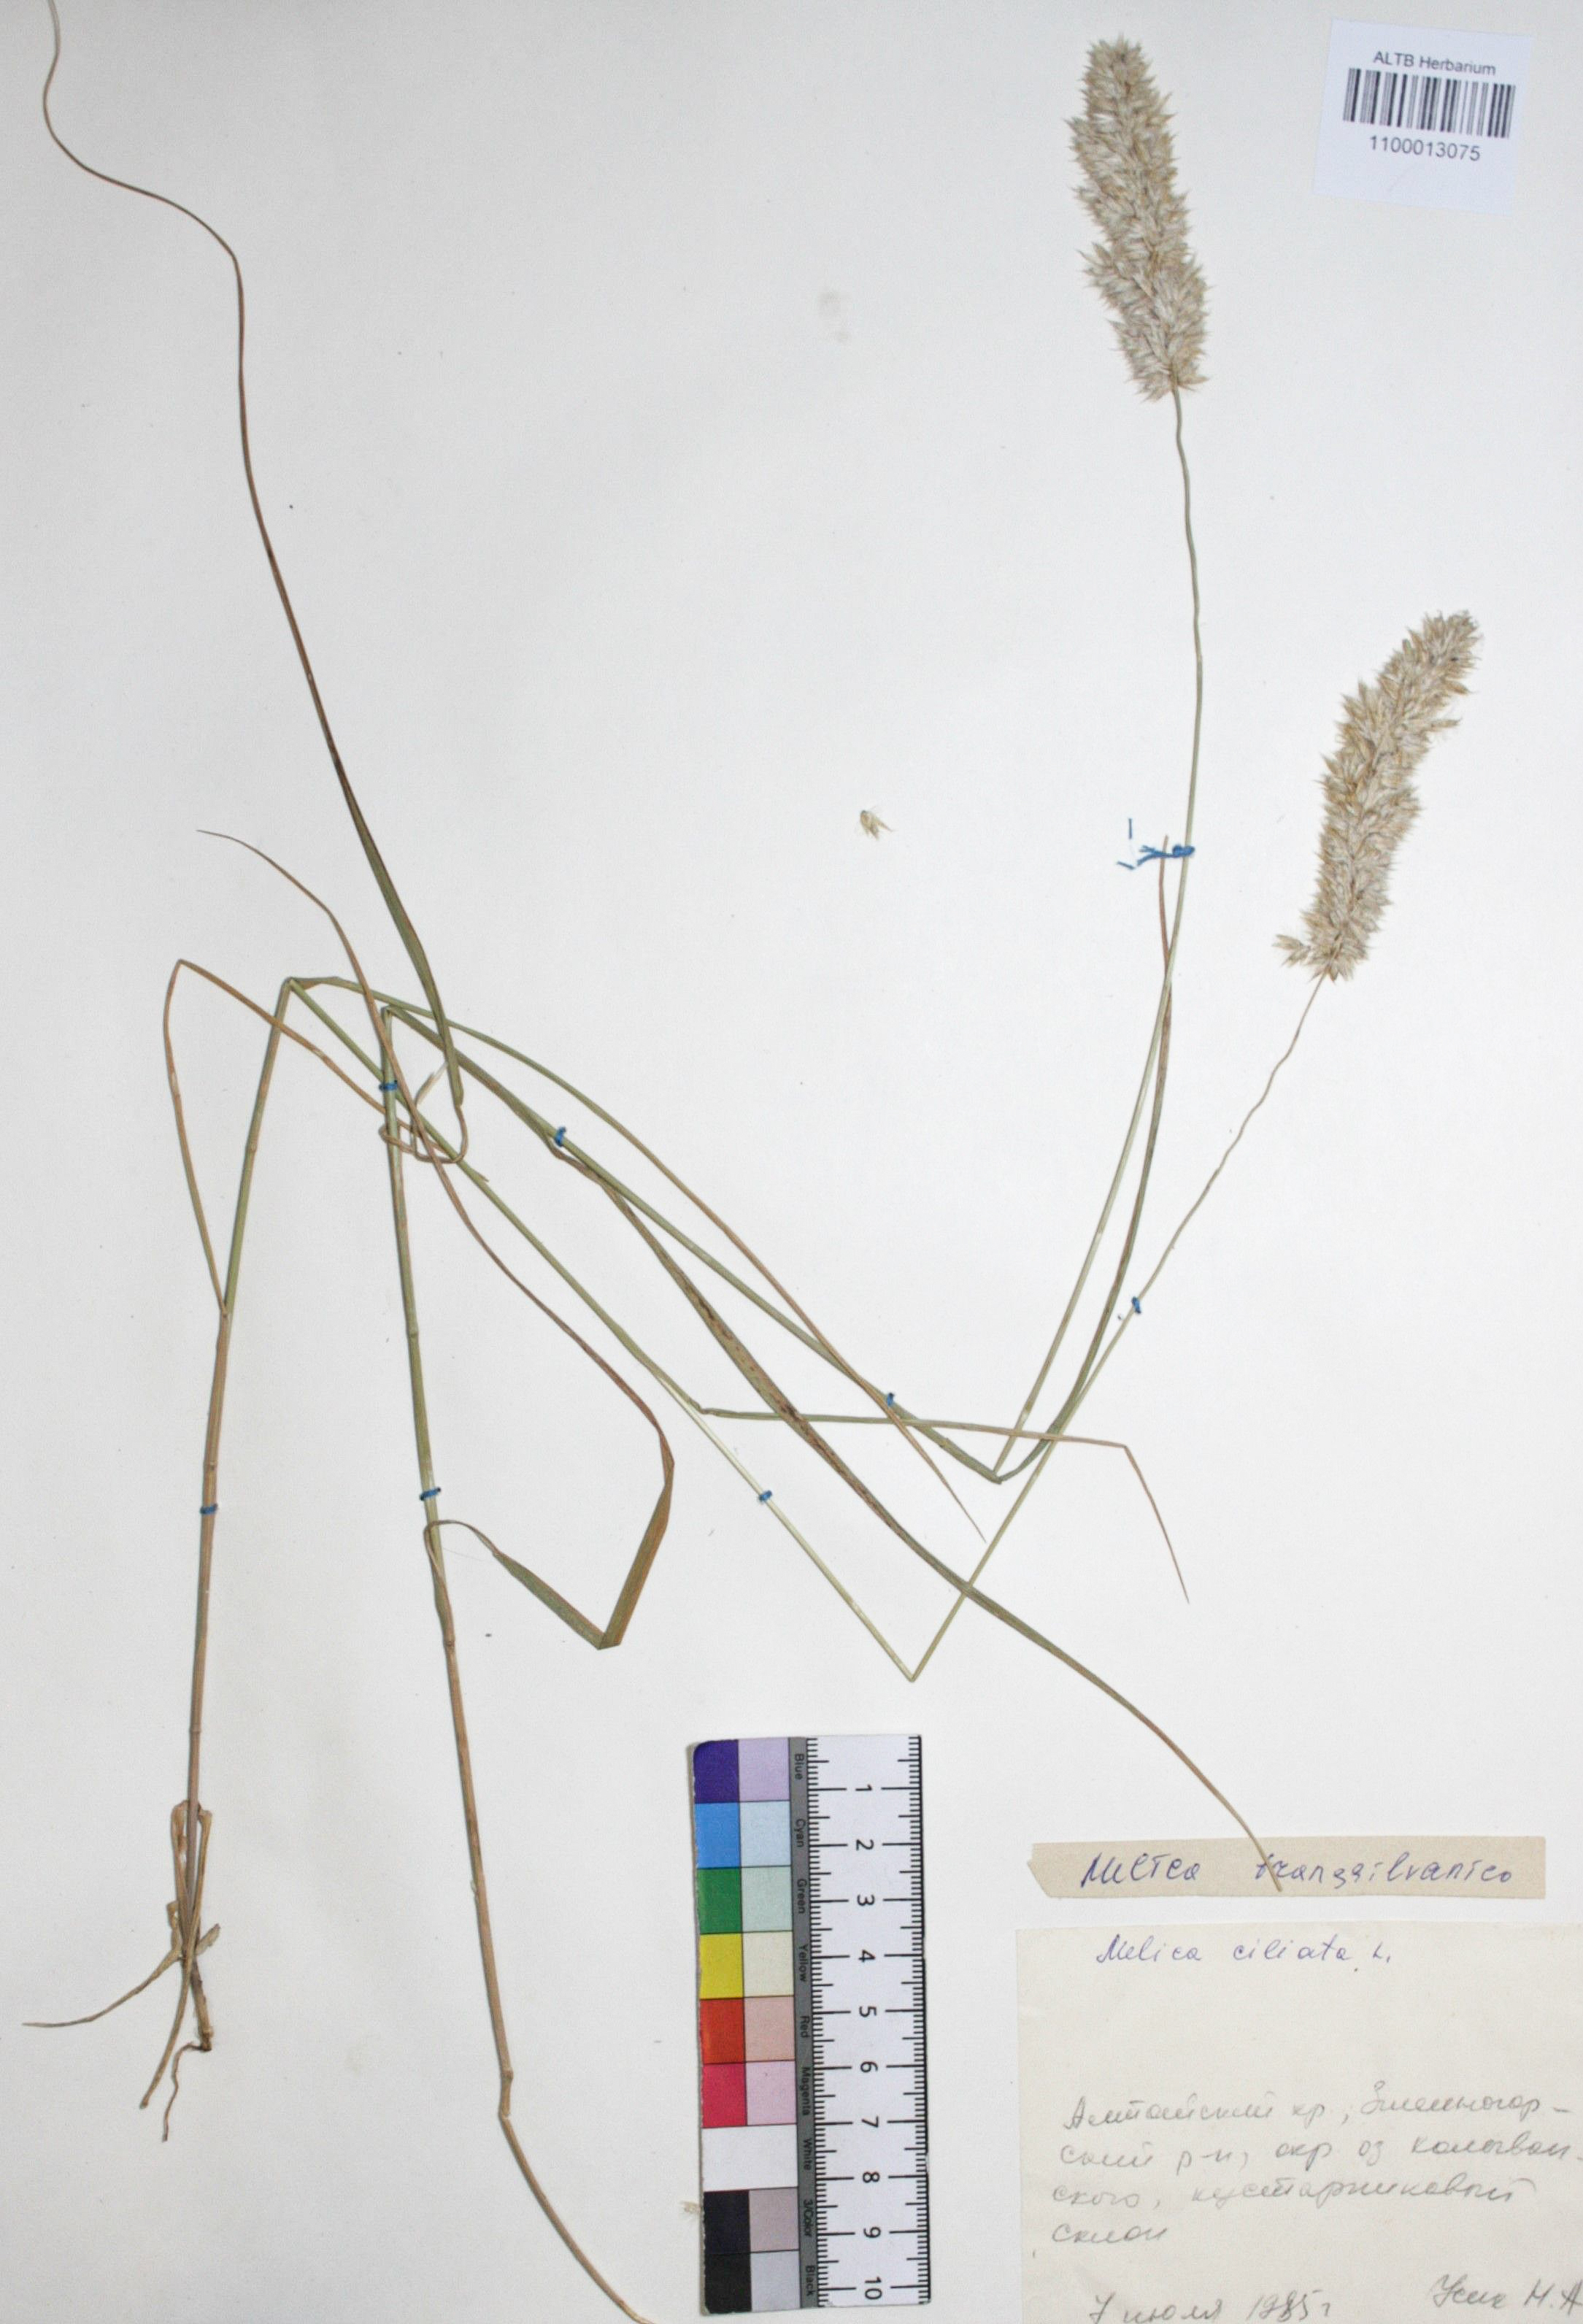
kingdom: Plantae
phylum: Tracheophyta
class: Liliopsida
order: Poales
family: Poaceae
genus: Melica
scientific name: Melica transsilvanica
